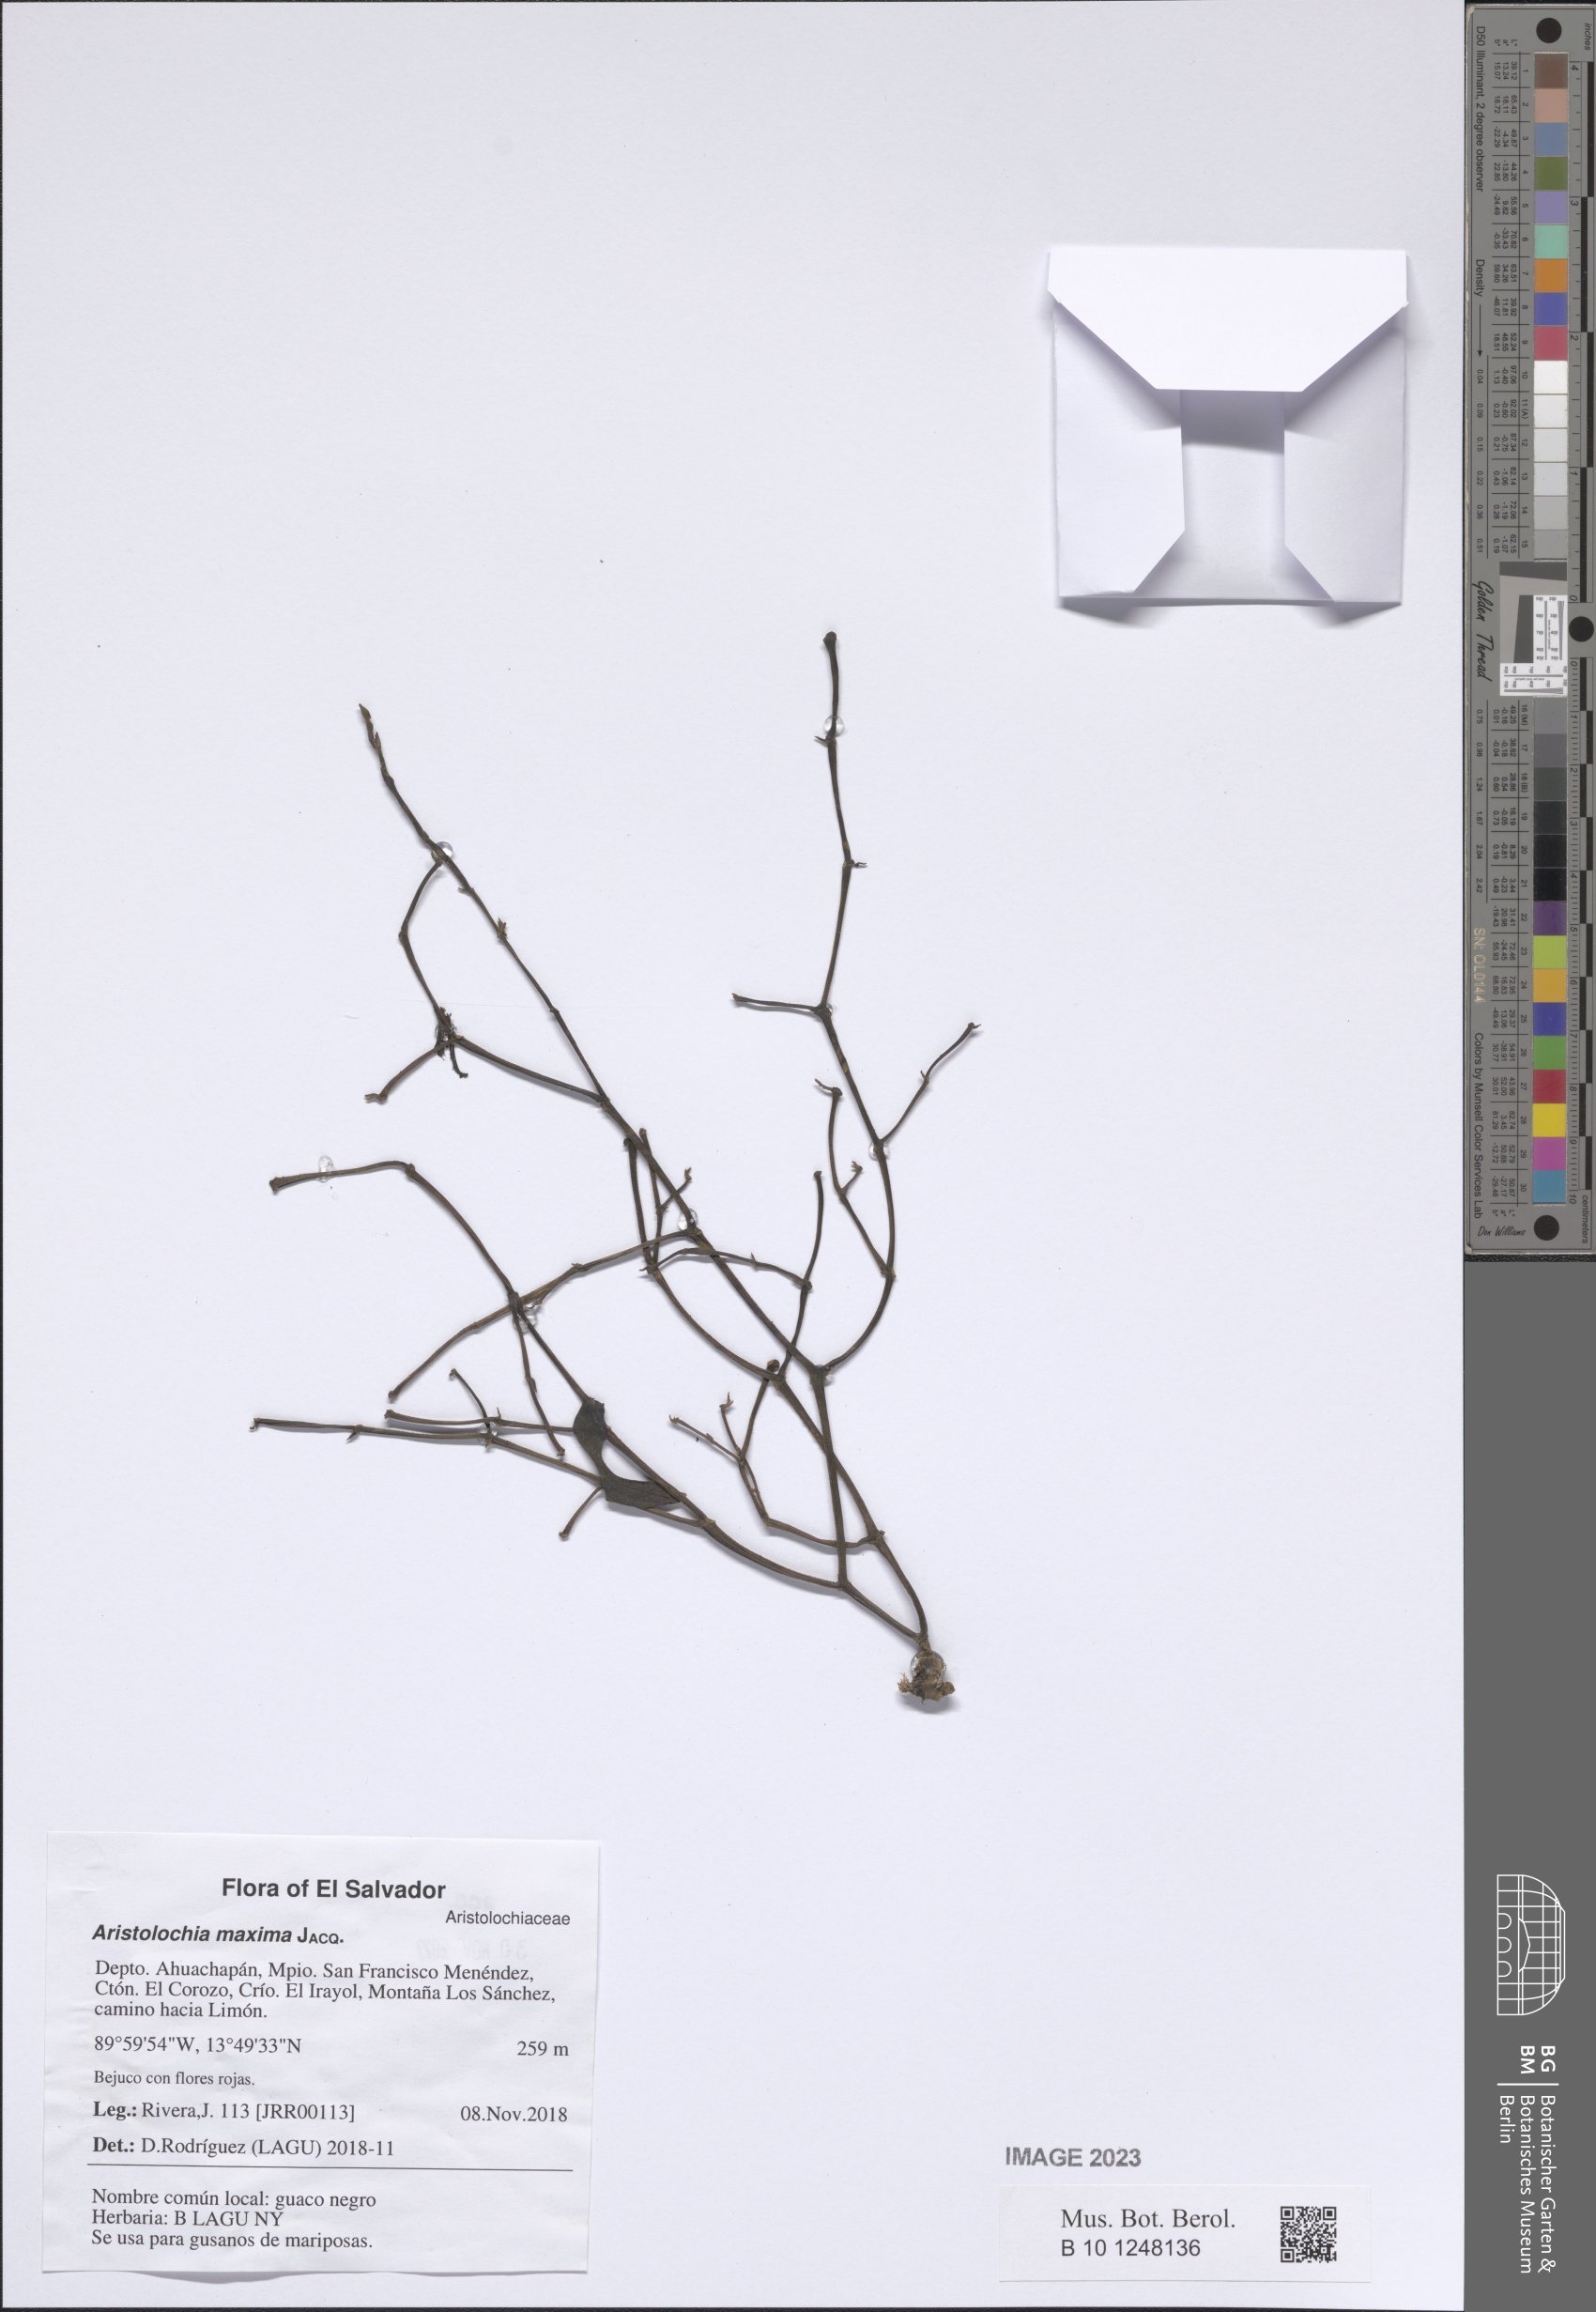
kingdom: Plantae
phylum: Tracheophyta
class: Magnoliopsida
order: Piperales
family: Aristolochiaceae
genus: Aristolochia
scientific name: Aristolochia maxima
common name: Florida dutchman's pipe
